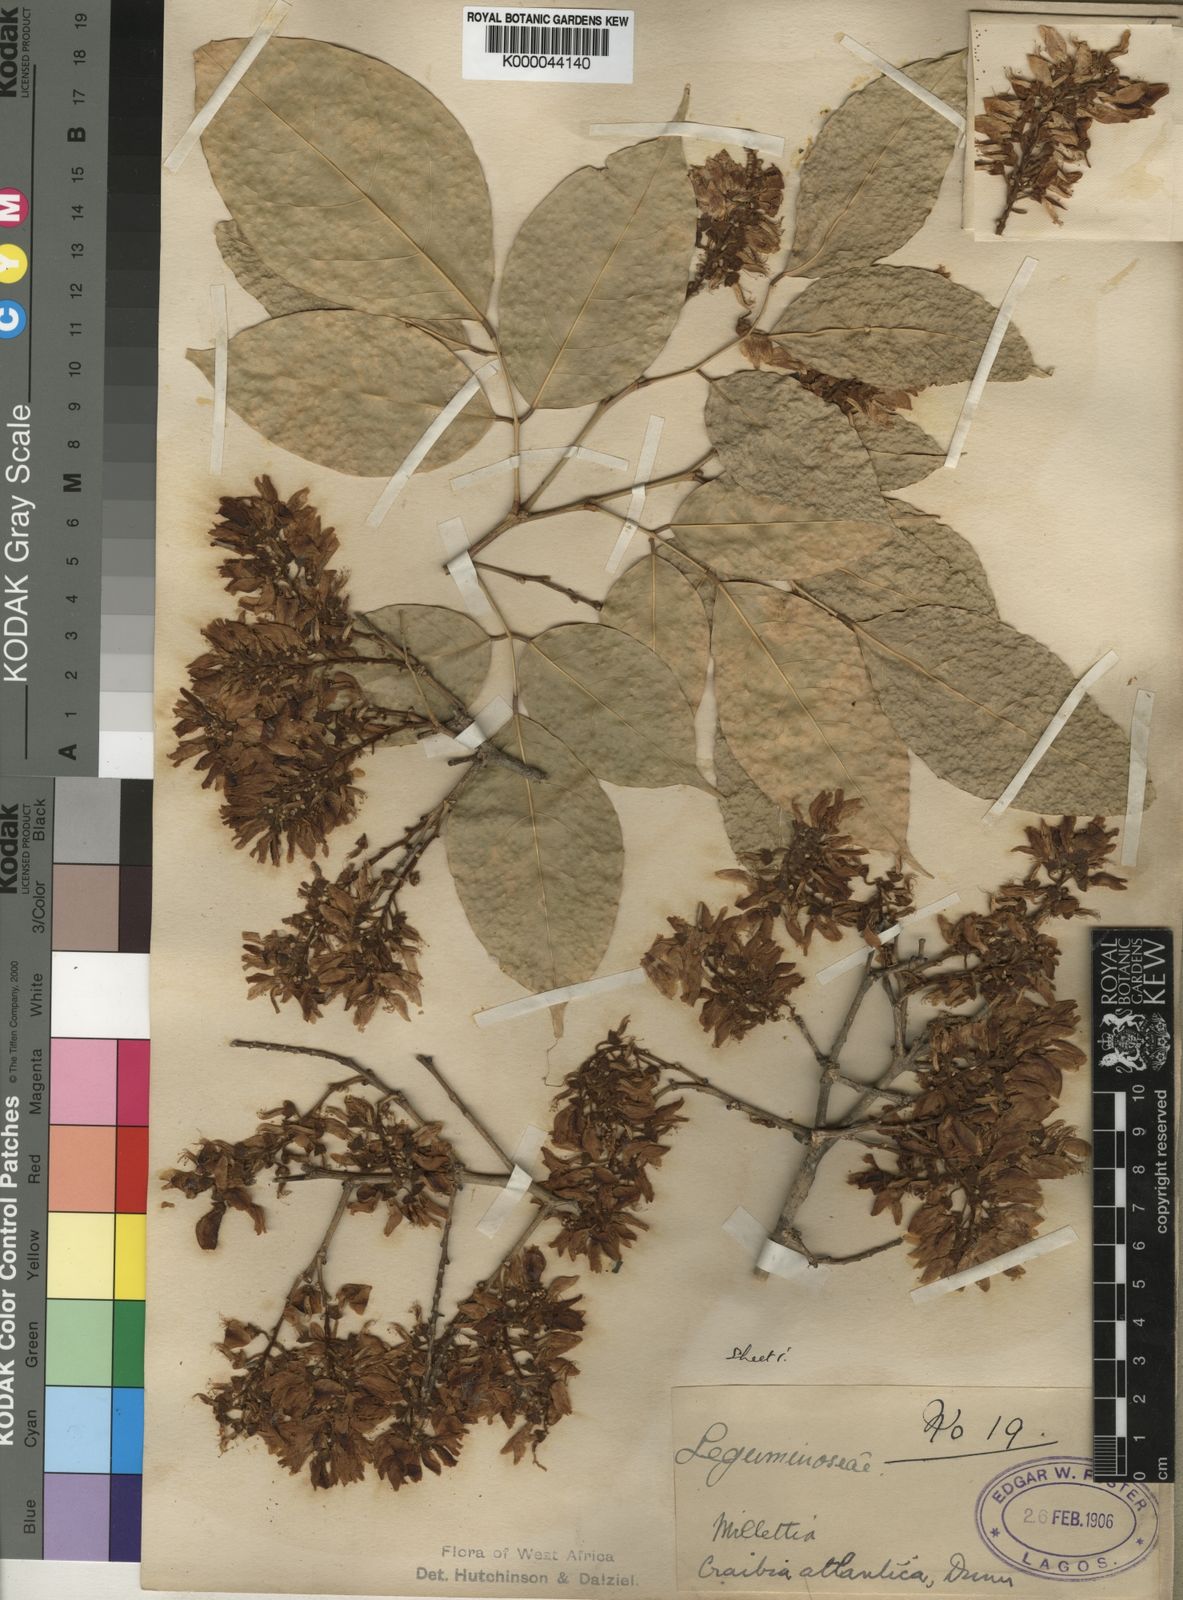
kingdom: Plantae
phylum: Tracheophyta
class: Magnoliopsida
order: Fabales
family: Fabaceae
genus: Craibia
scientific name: Craibia atlantica
